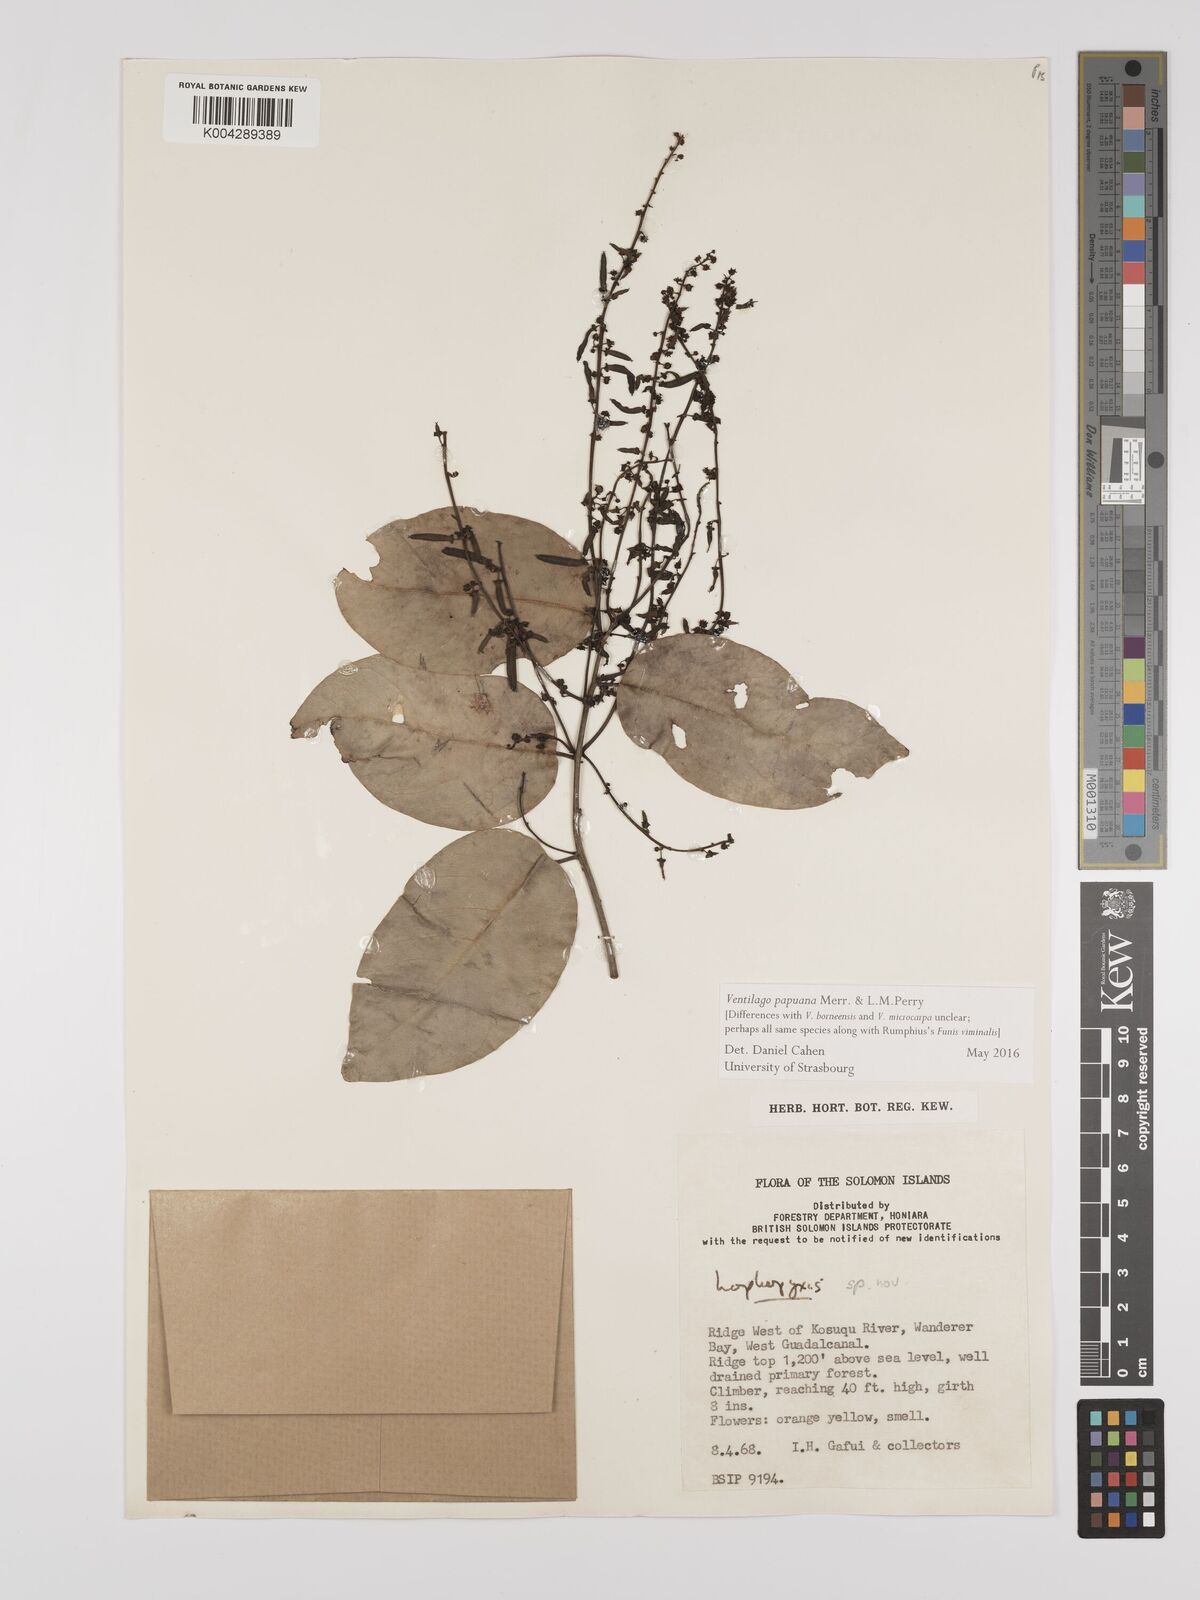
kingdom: Plantae
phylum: Tracheophyta
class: Magnoliopsida
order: Rosales
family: Rhamnaceae
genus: Ventilago
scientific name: Ventilago papuana
